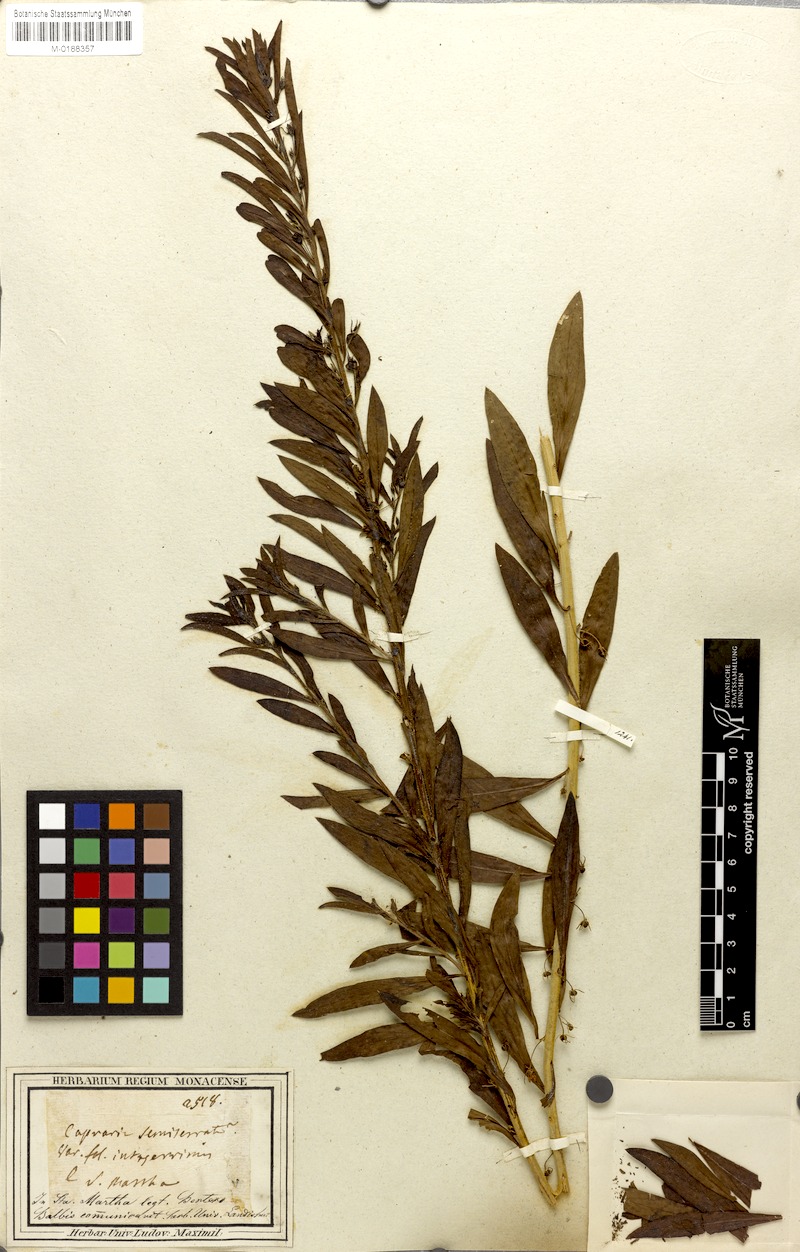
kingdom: Plantae
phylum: Tracheophyta
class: Magnoliopsida
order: Lamiales
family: Scrophulariaceae
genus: Capraria
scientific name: Capraria biflora
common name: Goatweed
